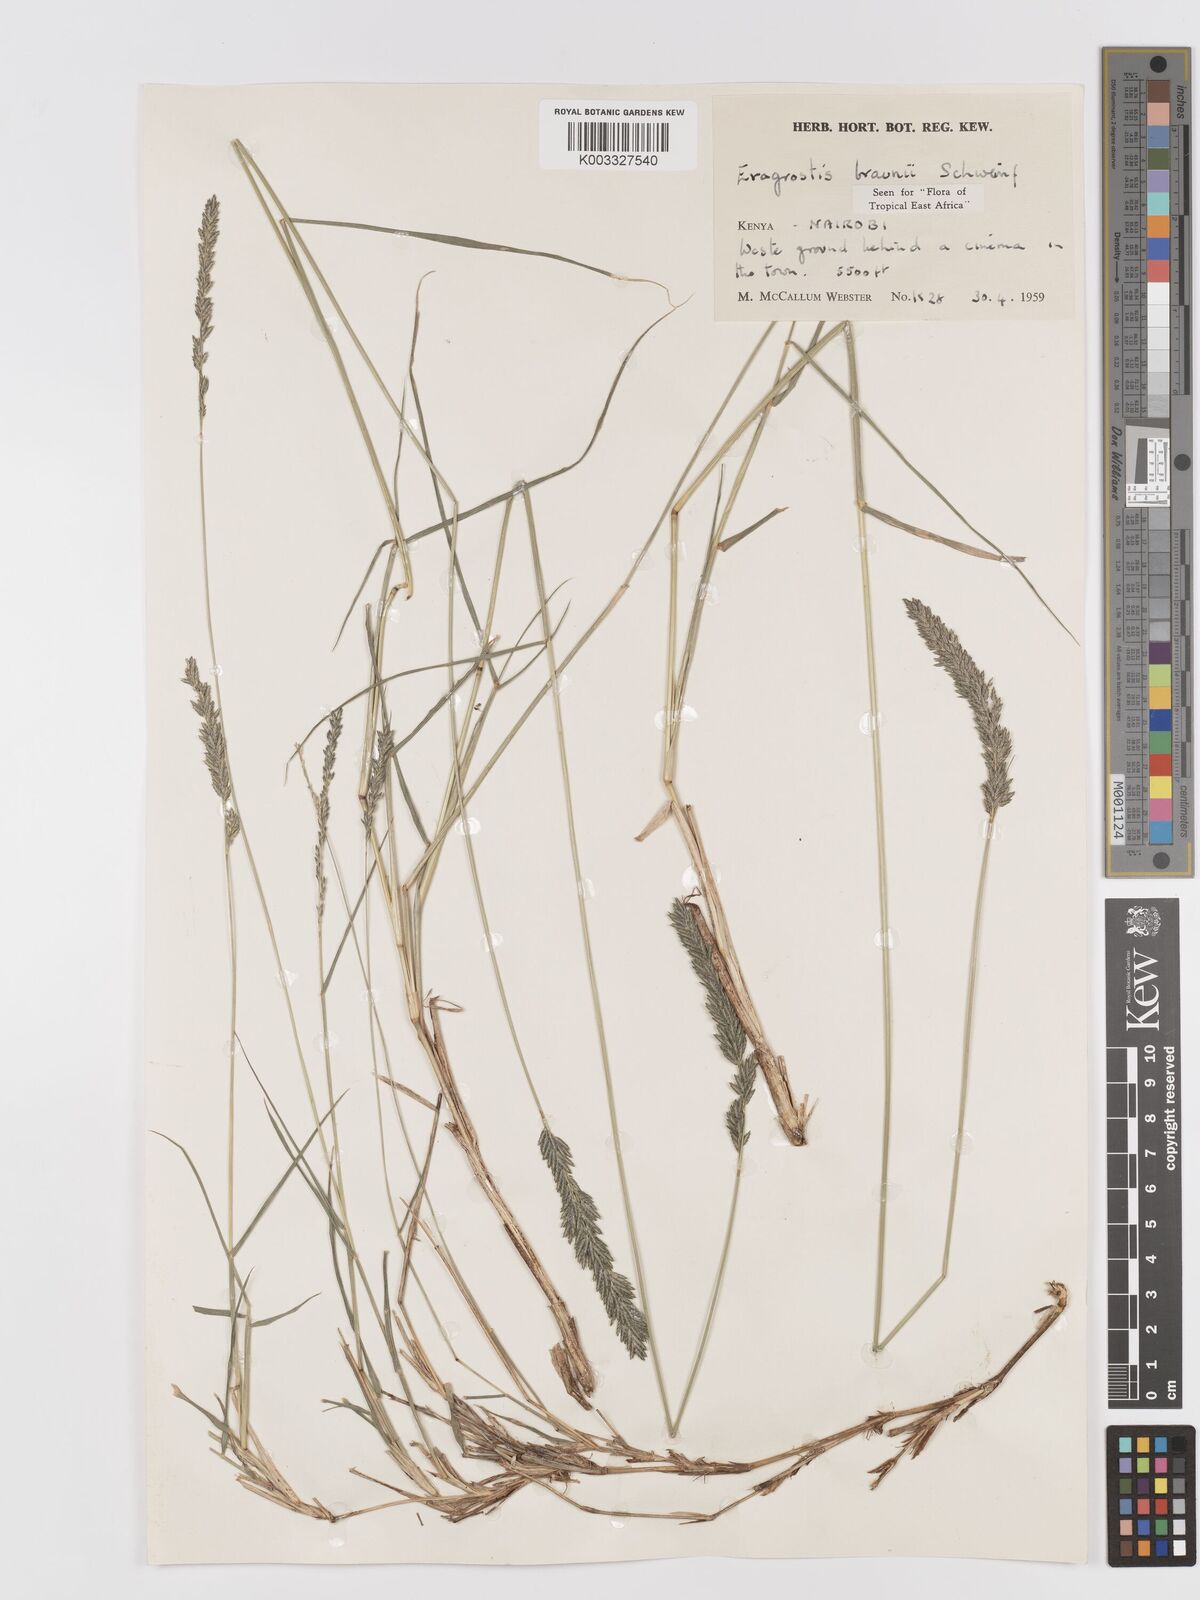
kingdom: Plantae
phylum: Tracheophyta
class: Liliopsida
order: Poales
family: Poaceae
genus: Eragrostis
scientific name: Eragrostis braunii
